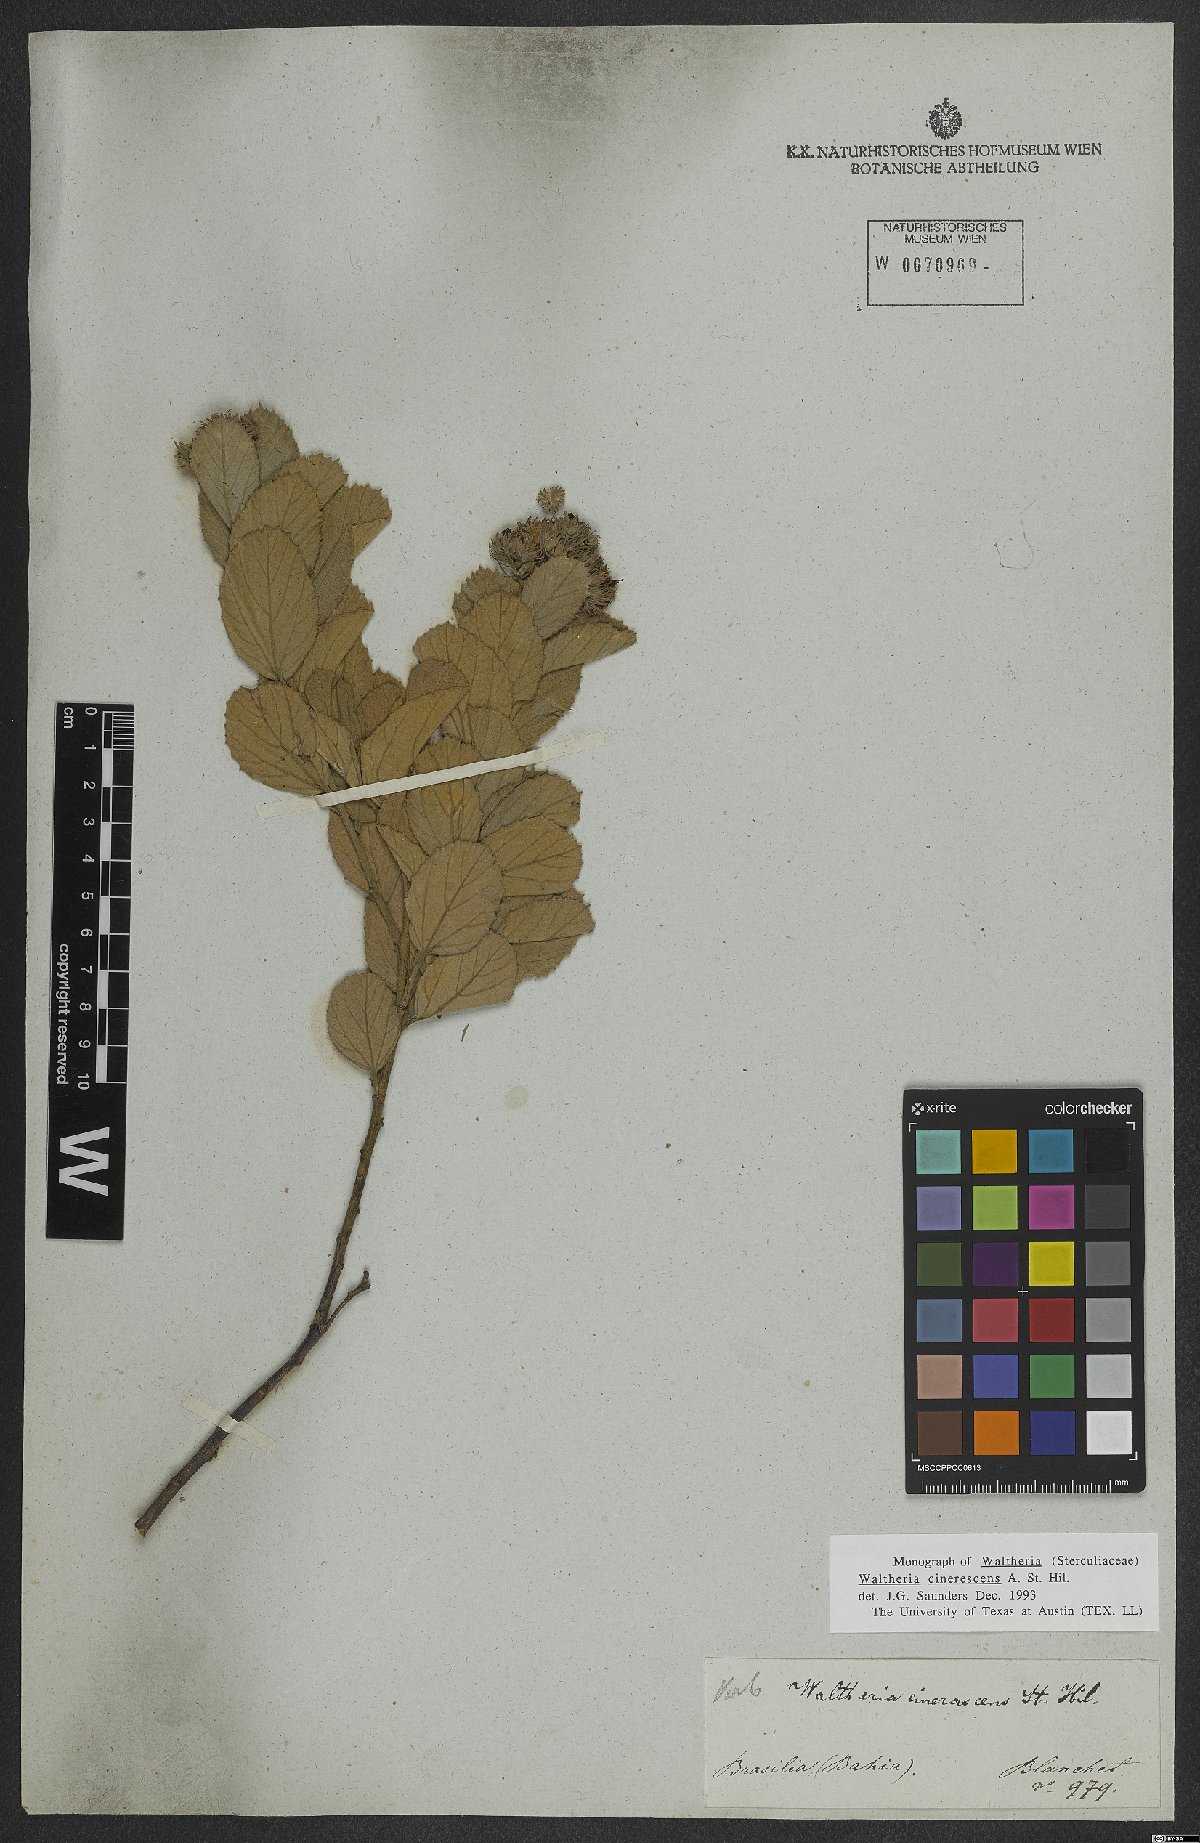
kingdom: Plantae
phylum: Tracheophyta
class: Magnoliopsida
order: Malvales
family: Malvaceae
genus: Waltheria
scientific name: Waltheria cinerescens
